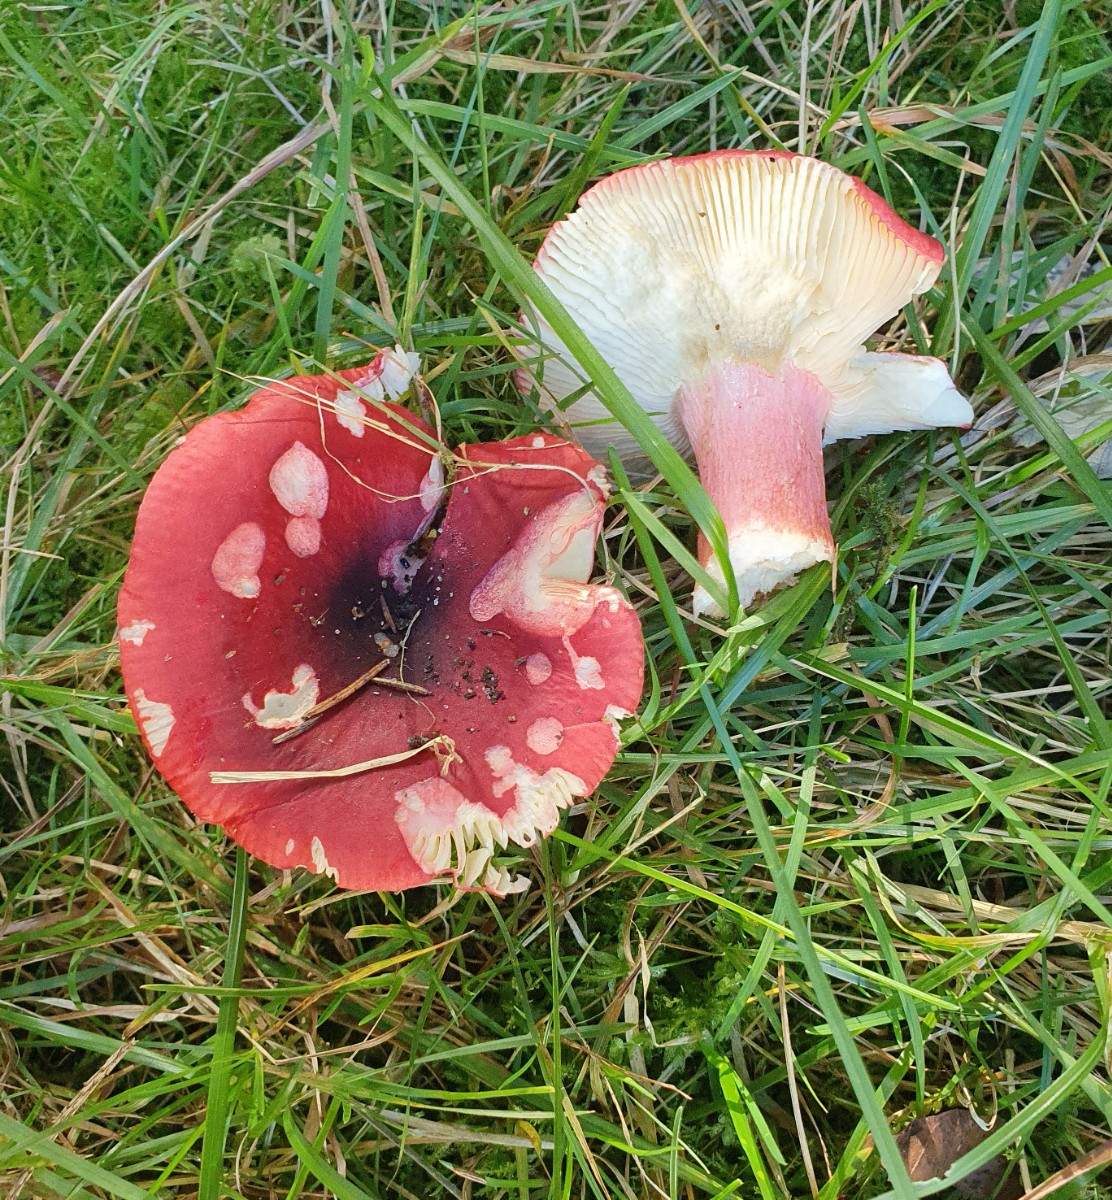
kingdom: Fungi
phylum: Basidiomycota
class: Agaricomycetes
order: Russulales
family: Russulaceae
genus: Russula
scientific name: Russula sanguinea
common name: blodrød skørhat
